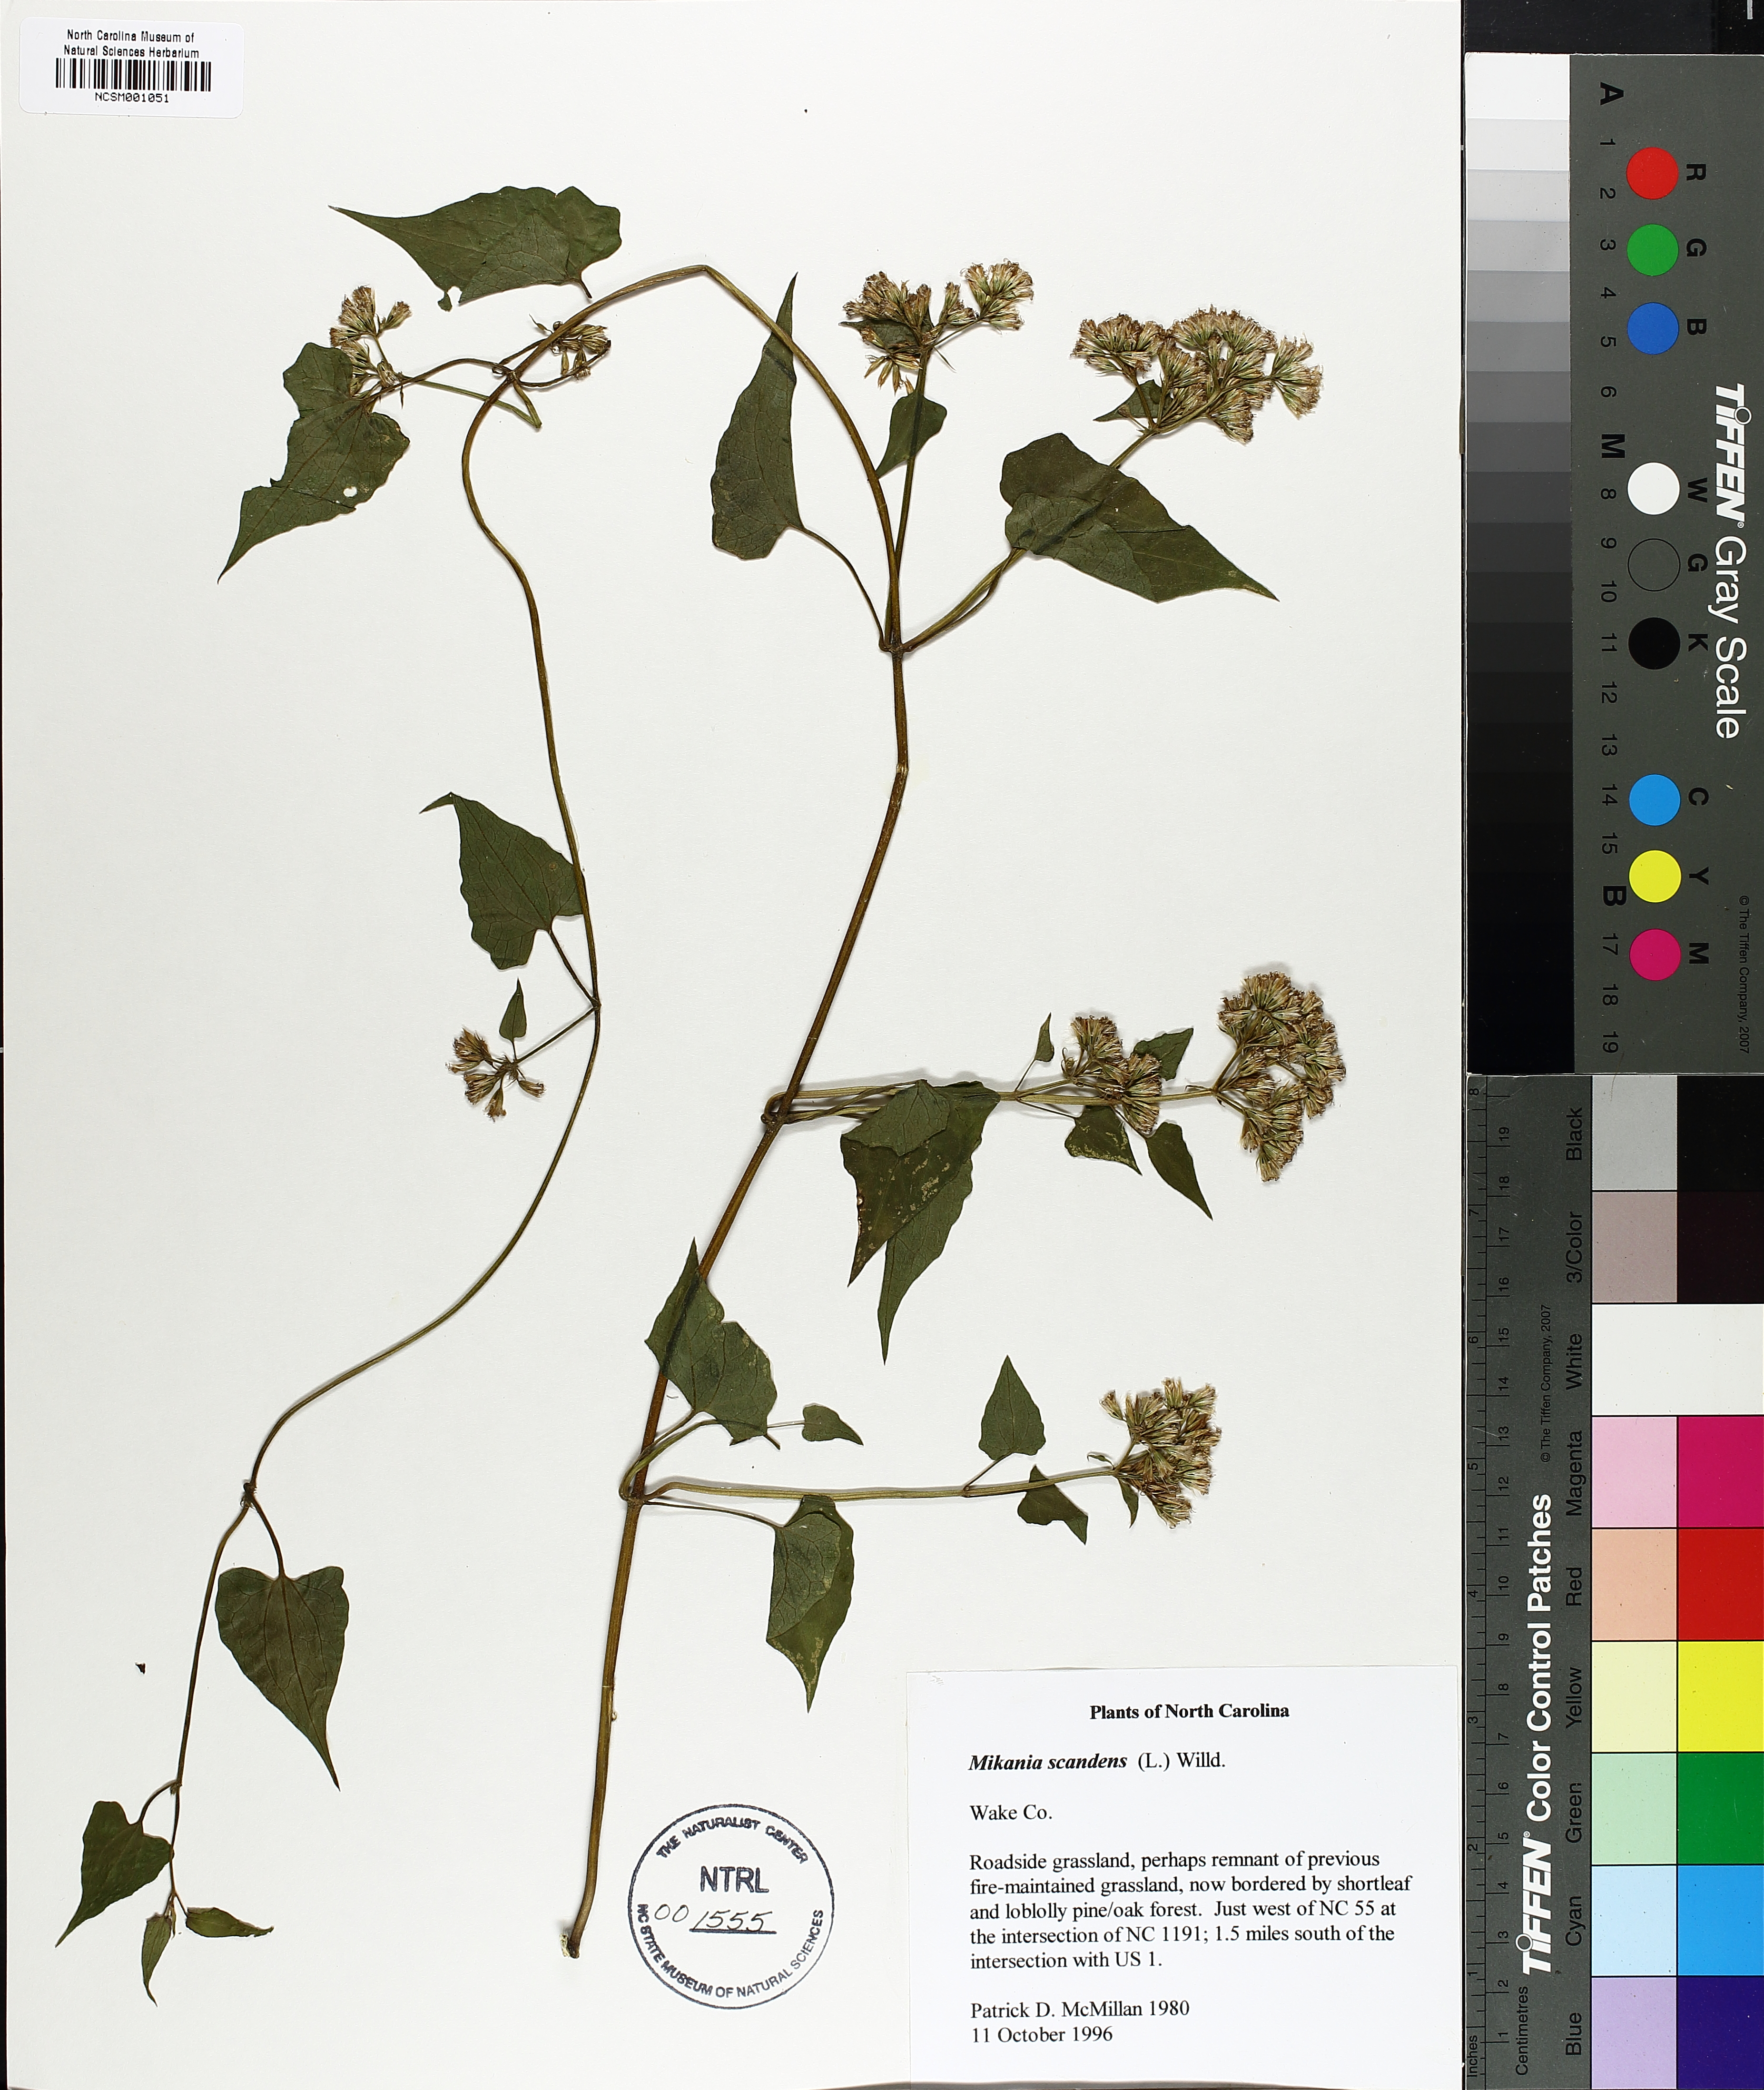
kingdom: Plantae
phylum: Tracheophyta
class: Magnoliopsida
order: Asterales
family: Asteraceae
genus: Mikania
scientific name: Mikania scandens
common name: Climbing hempvine
